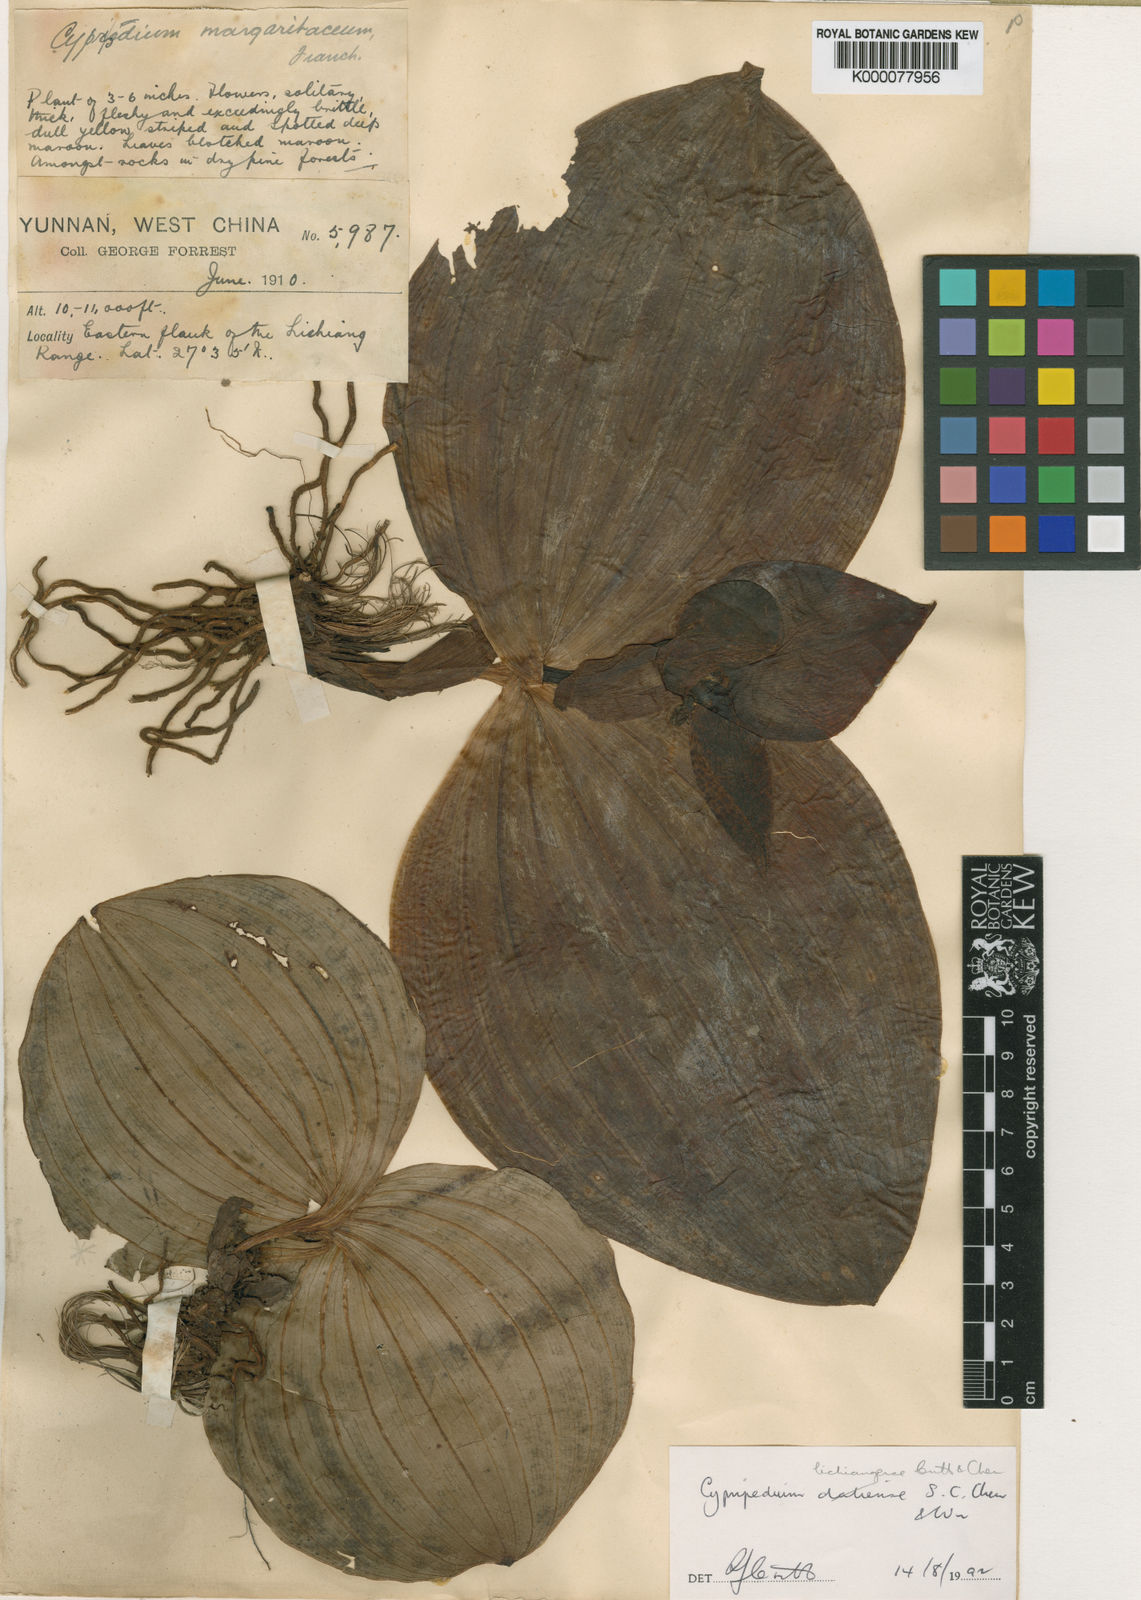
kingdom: Plantae
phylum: Tracheophyta
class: Liliopsida
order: Asparagales
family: Orchidaceae
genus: Cypripedium
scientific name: Cypripedium lichiangense
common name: Lijiang cypripedium
